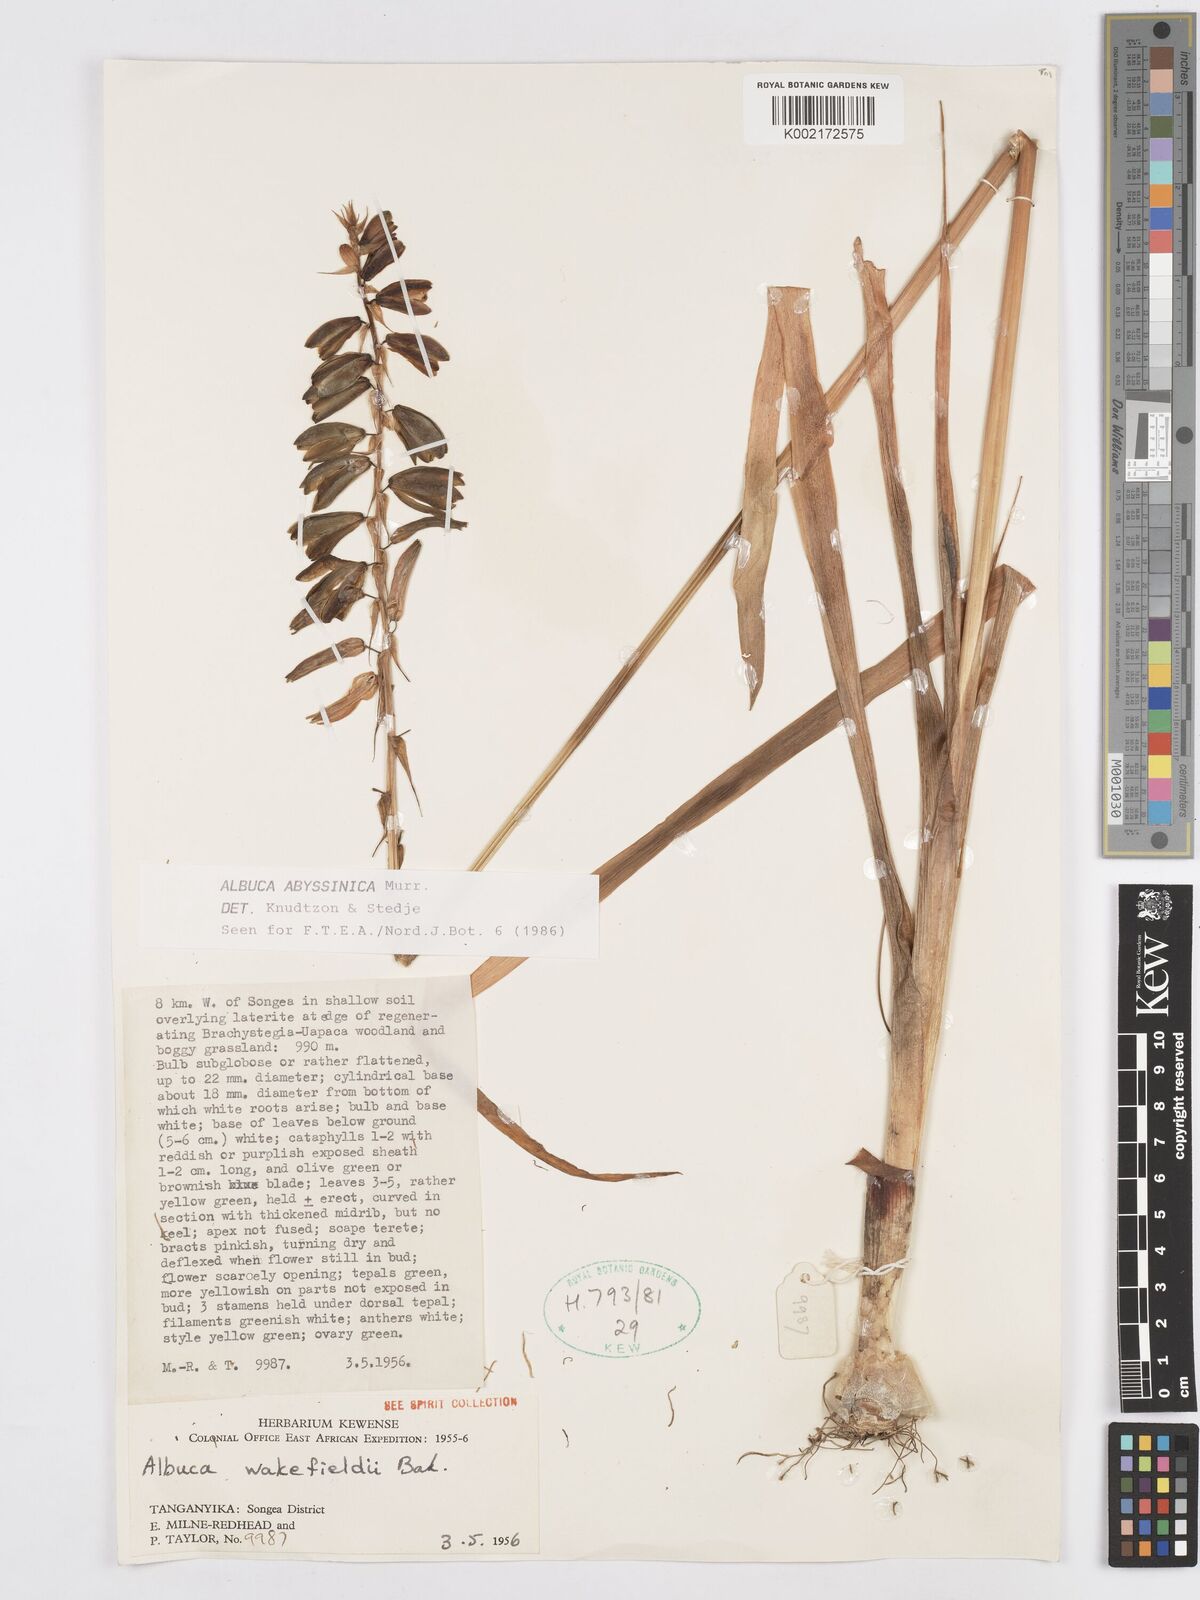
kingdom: Plantae
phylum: Tracheophyta
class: Liliopsida
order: Asparagales
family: Asparagaceae
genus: Albuca
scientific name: Albuca abyssinica
